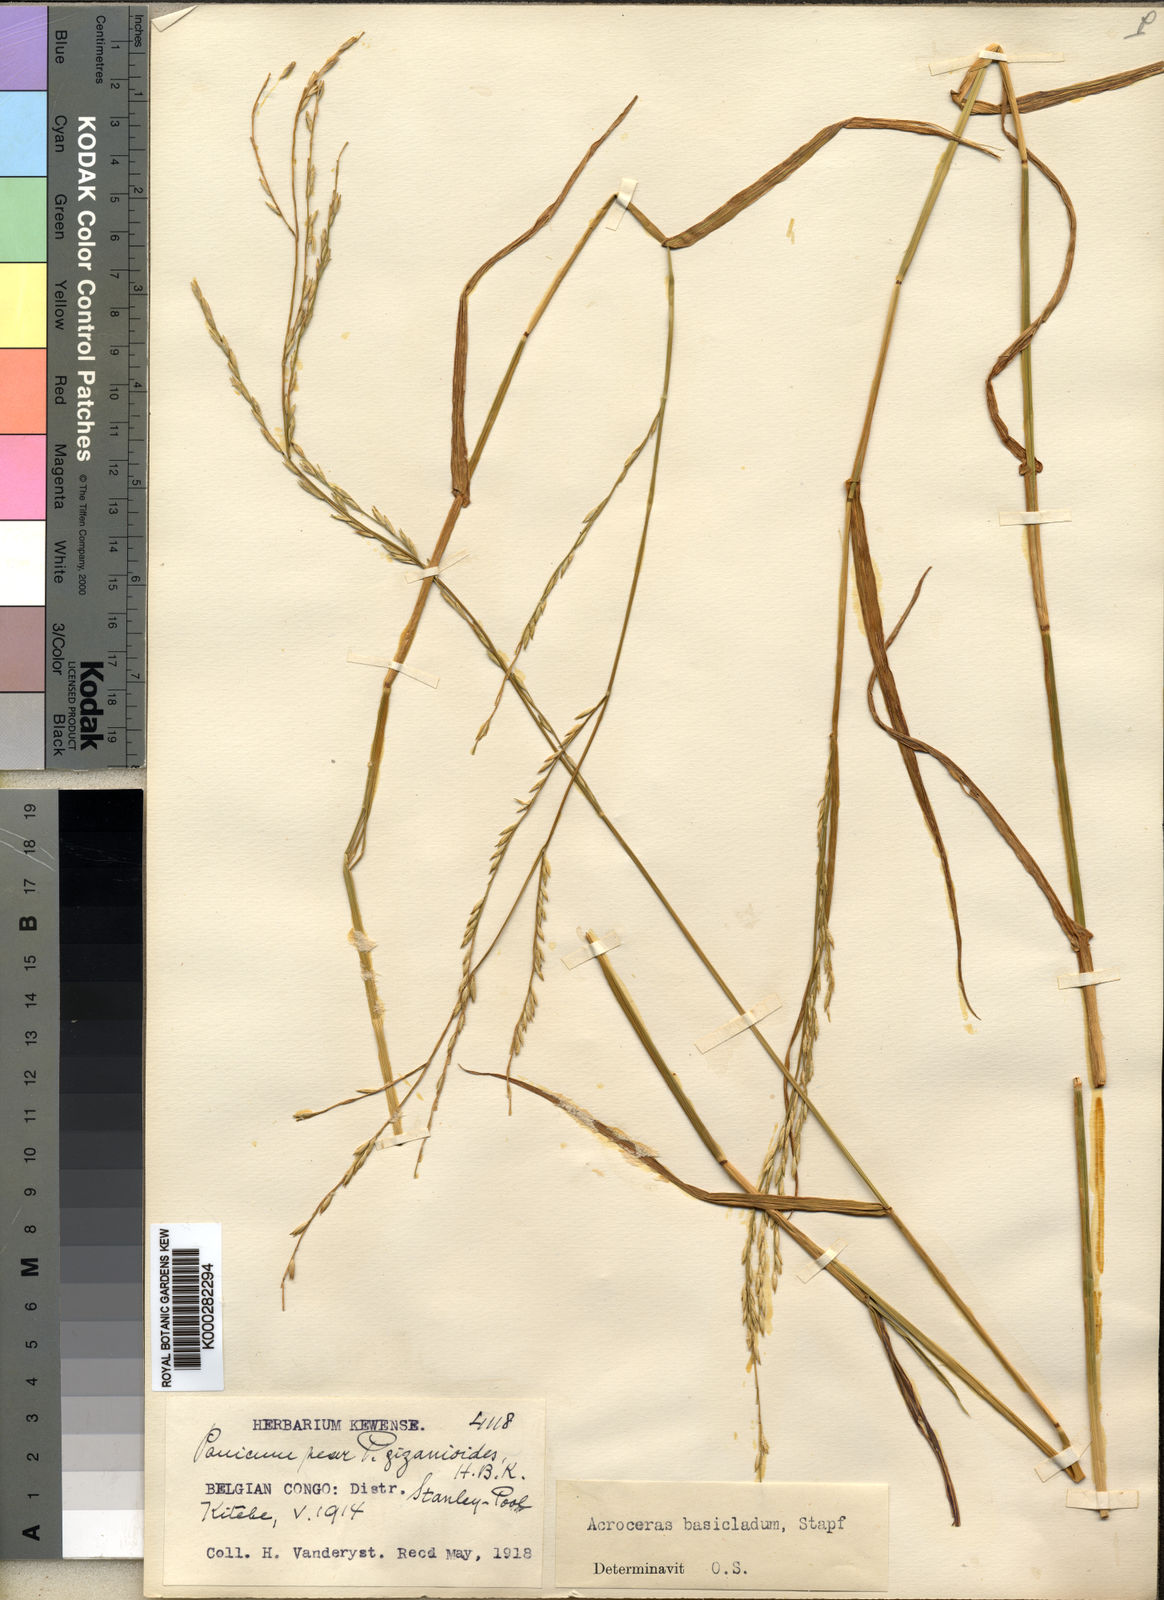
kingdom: Plantae
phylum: Tracheophyta
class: Liliopsida
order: Poales
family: Poaceae
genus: Acroceras
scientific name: Acroceras amplectens
